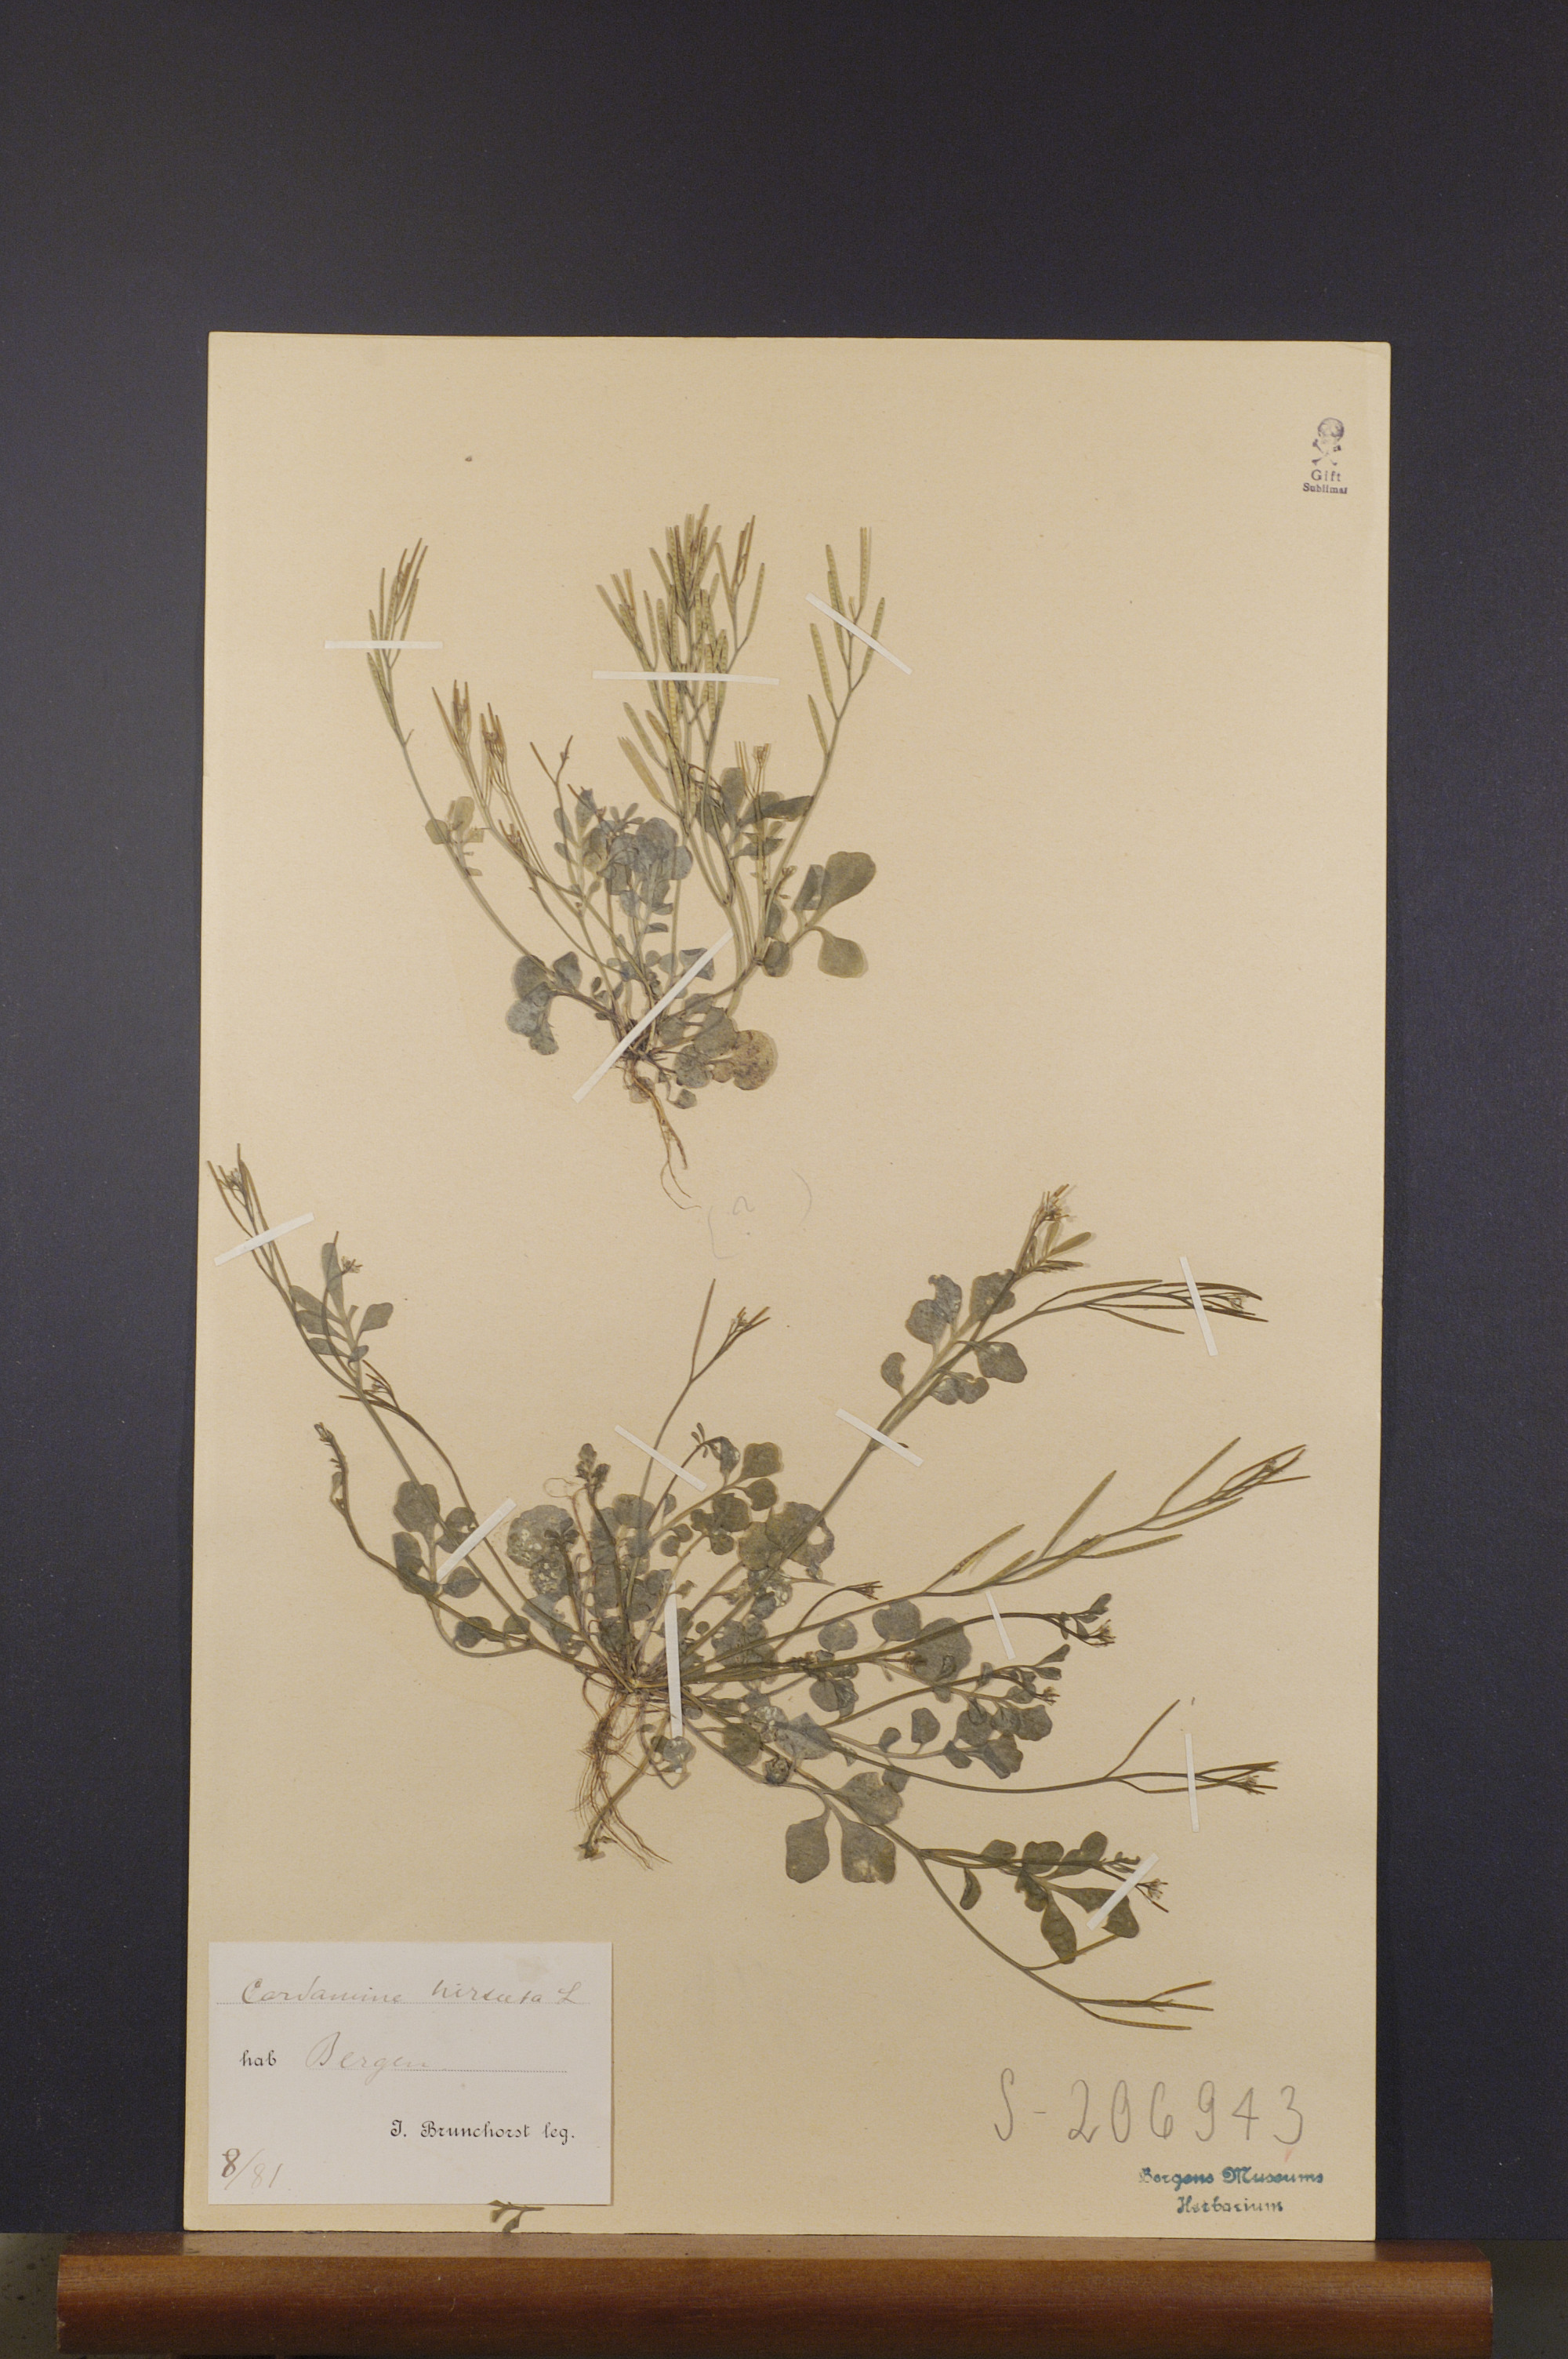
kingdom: Plantae
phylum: Tracheophyta
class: Magnoliopsida
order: Brassicales
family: Brassicaceae
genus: Cardamine
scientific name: Cardamine hirsuta
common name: Hairy bittercress
